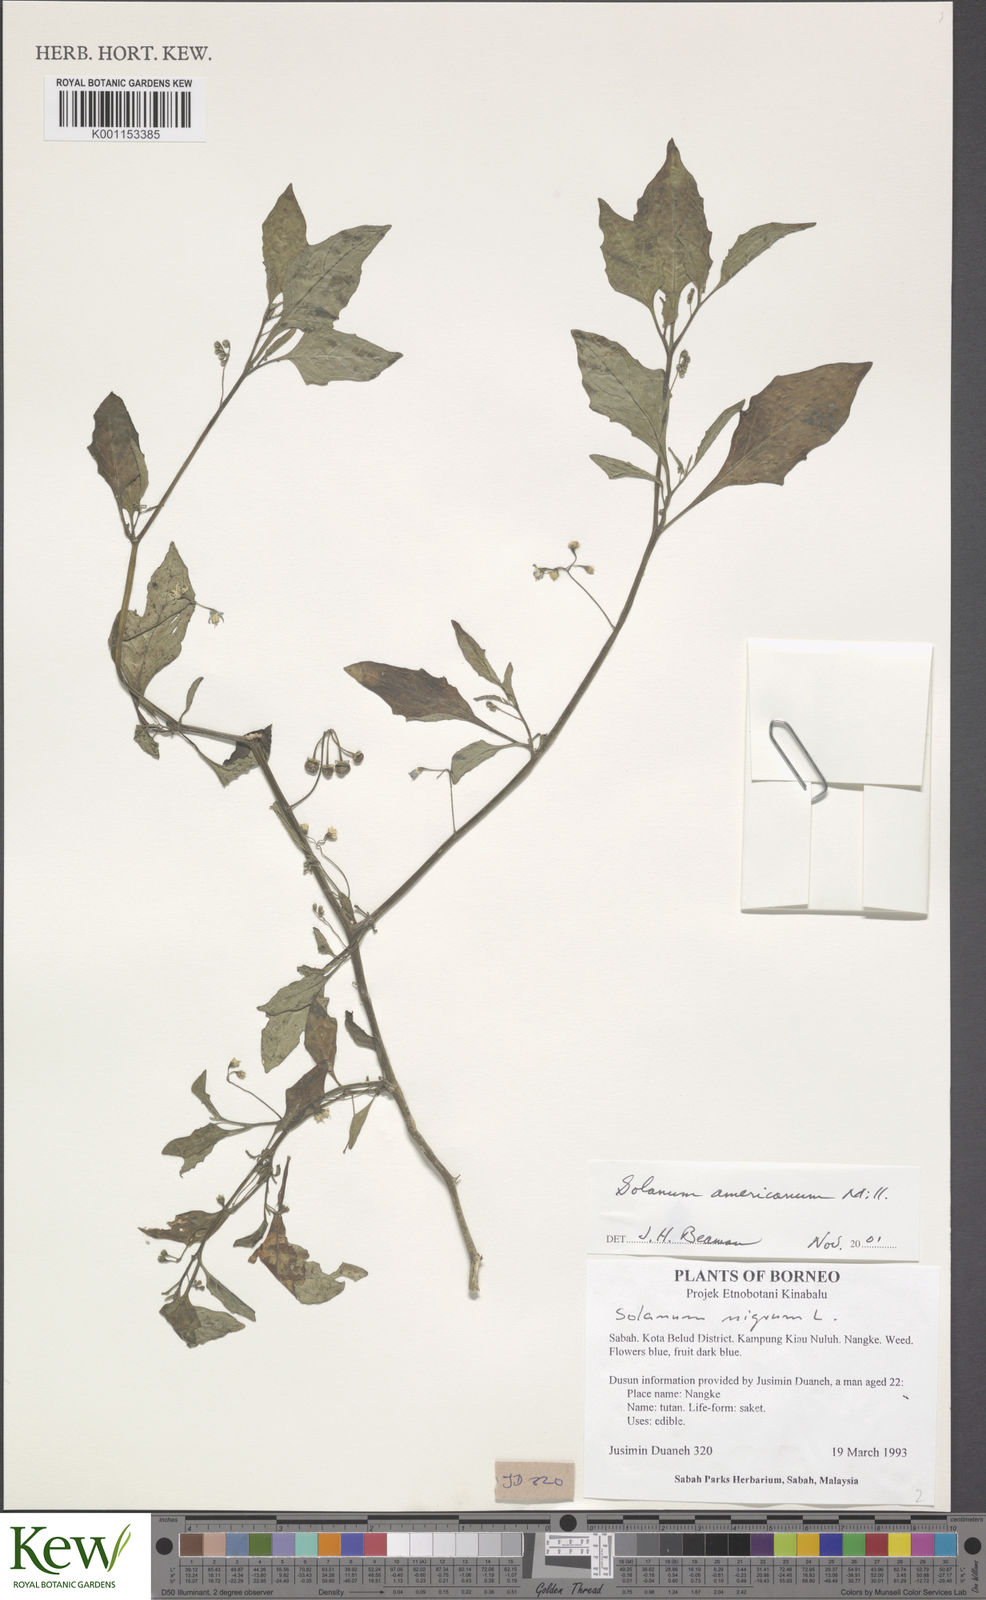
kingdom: Plantae
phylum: Tracheophyta
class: Magnoliopsida
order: Solanales
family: Solanaceae
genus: Solanum
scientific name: Solanum americanum
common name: American black nightshade
